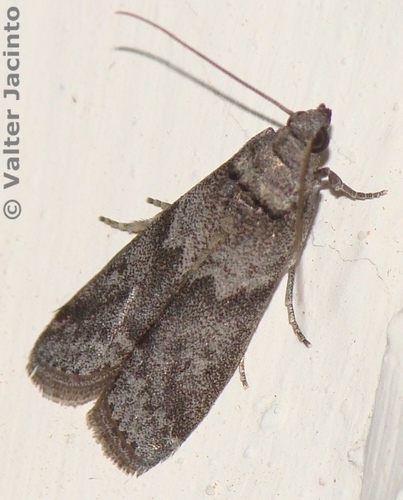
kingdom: Animalia
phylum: Arthropoda
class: Insecta
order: Lepidoptera
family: Pyralidae
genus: Ectomyelois
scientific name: Ectomyelois ceratoniae
